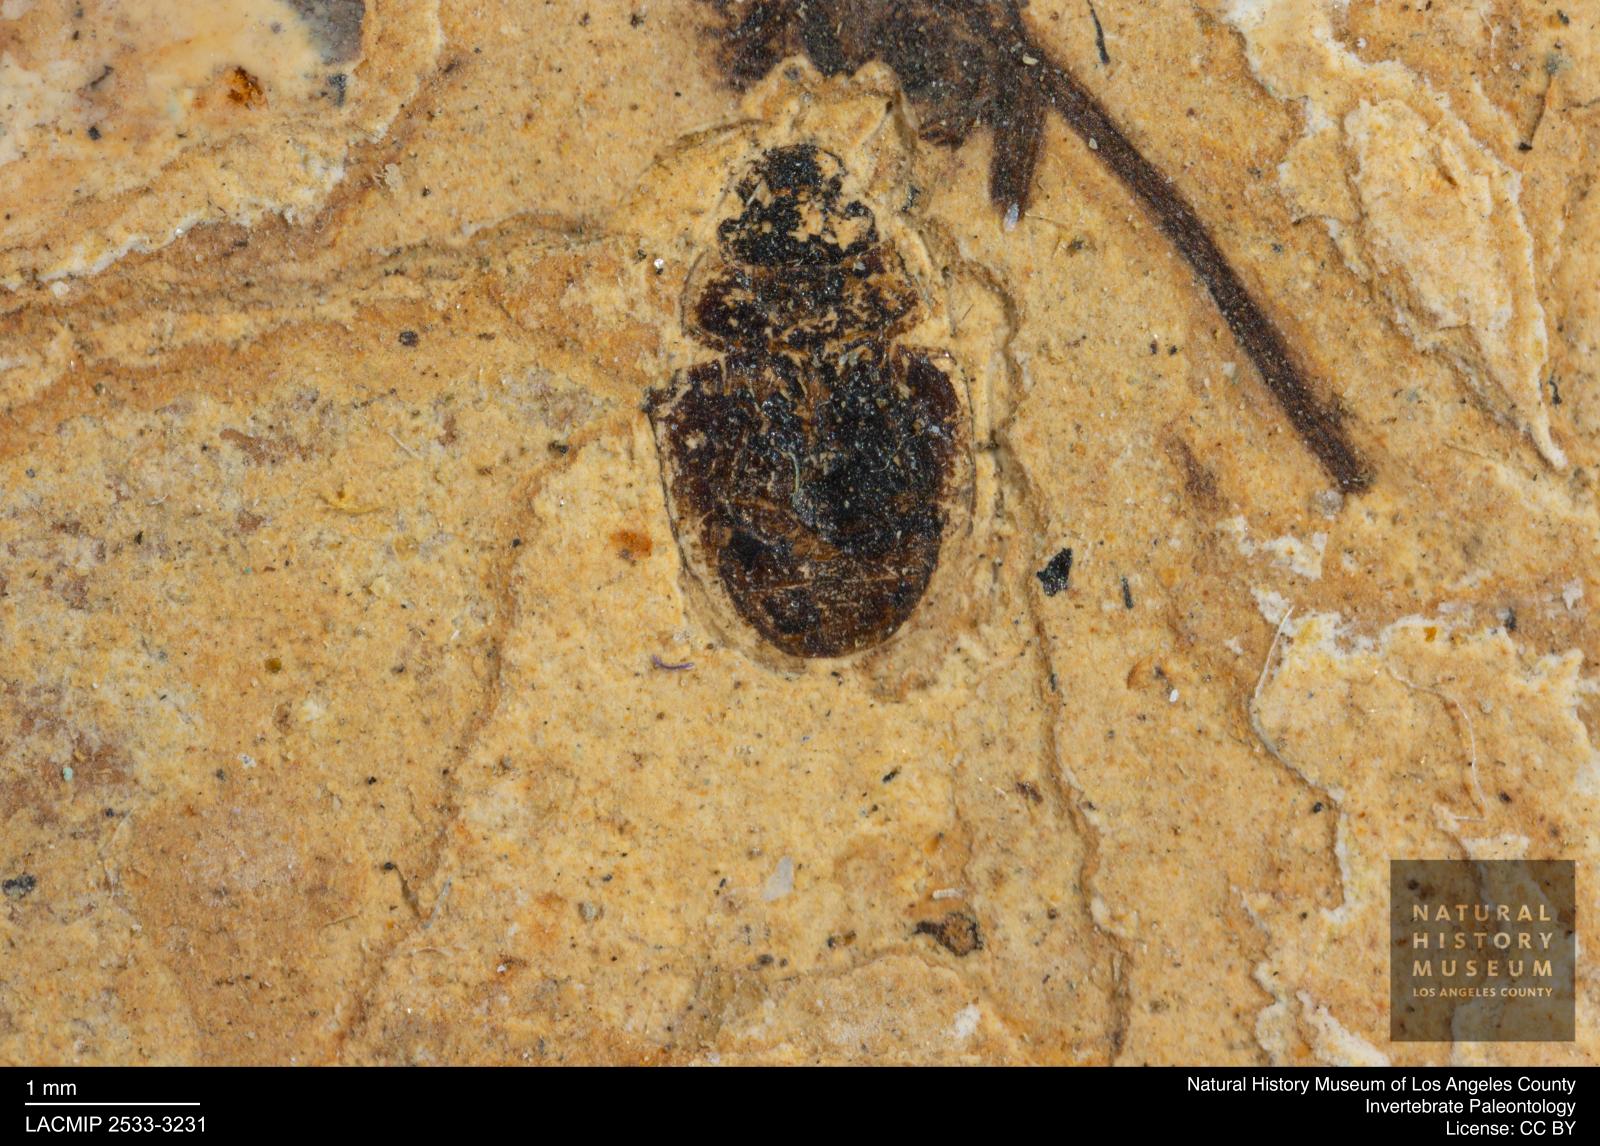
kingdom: Animalia
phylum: Arthropoda
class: Insecta
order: Coleoptera
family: Hydrophilidae
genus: Paracymus
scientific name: Paracymus excitatus
